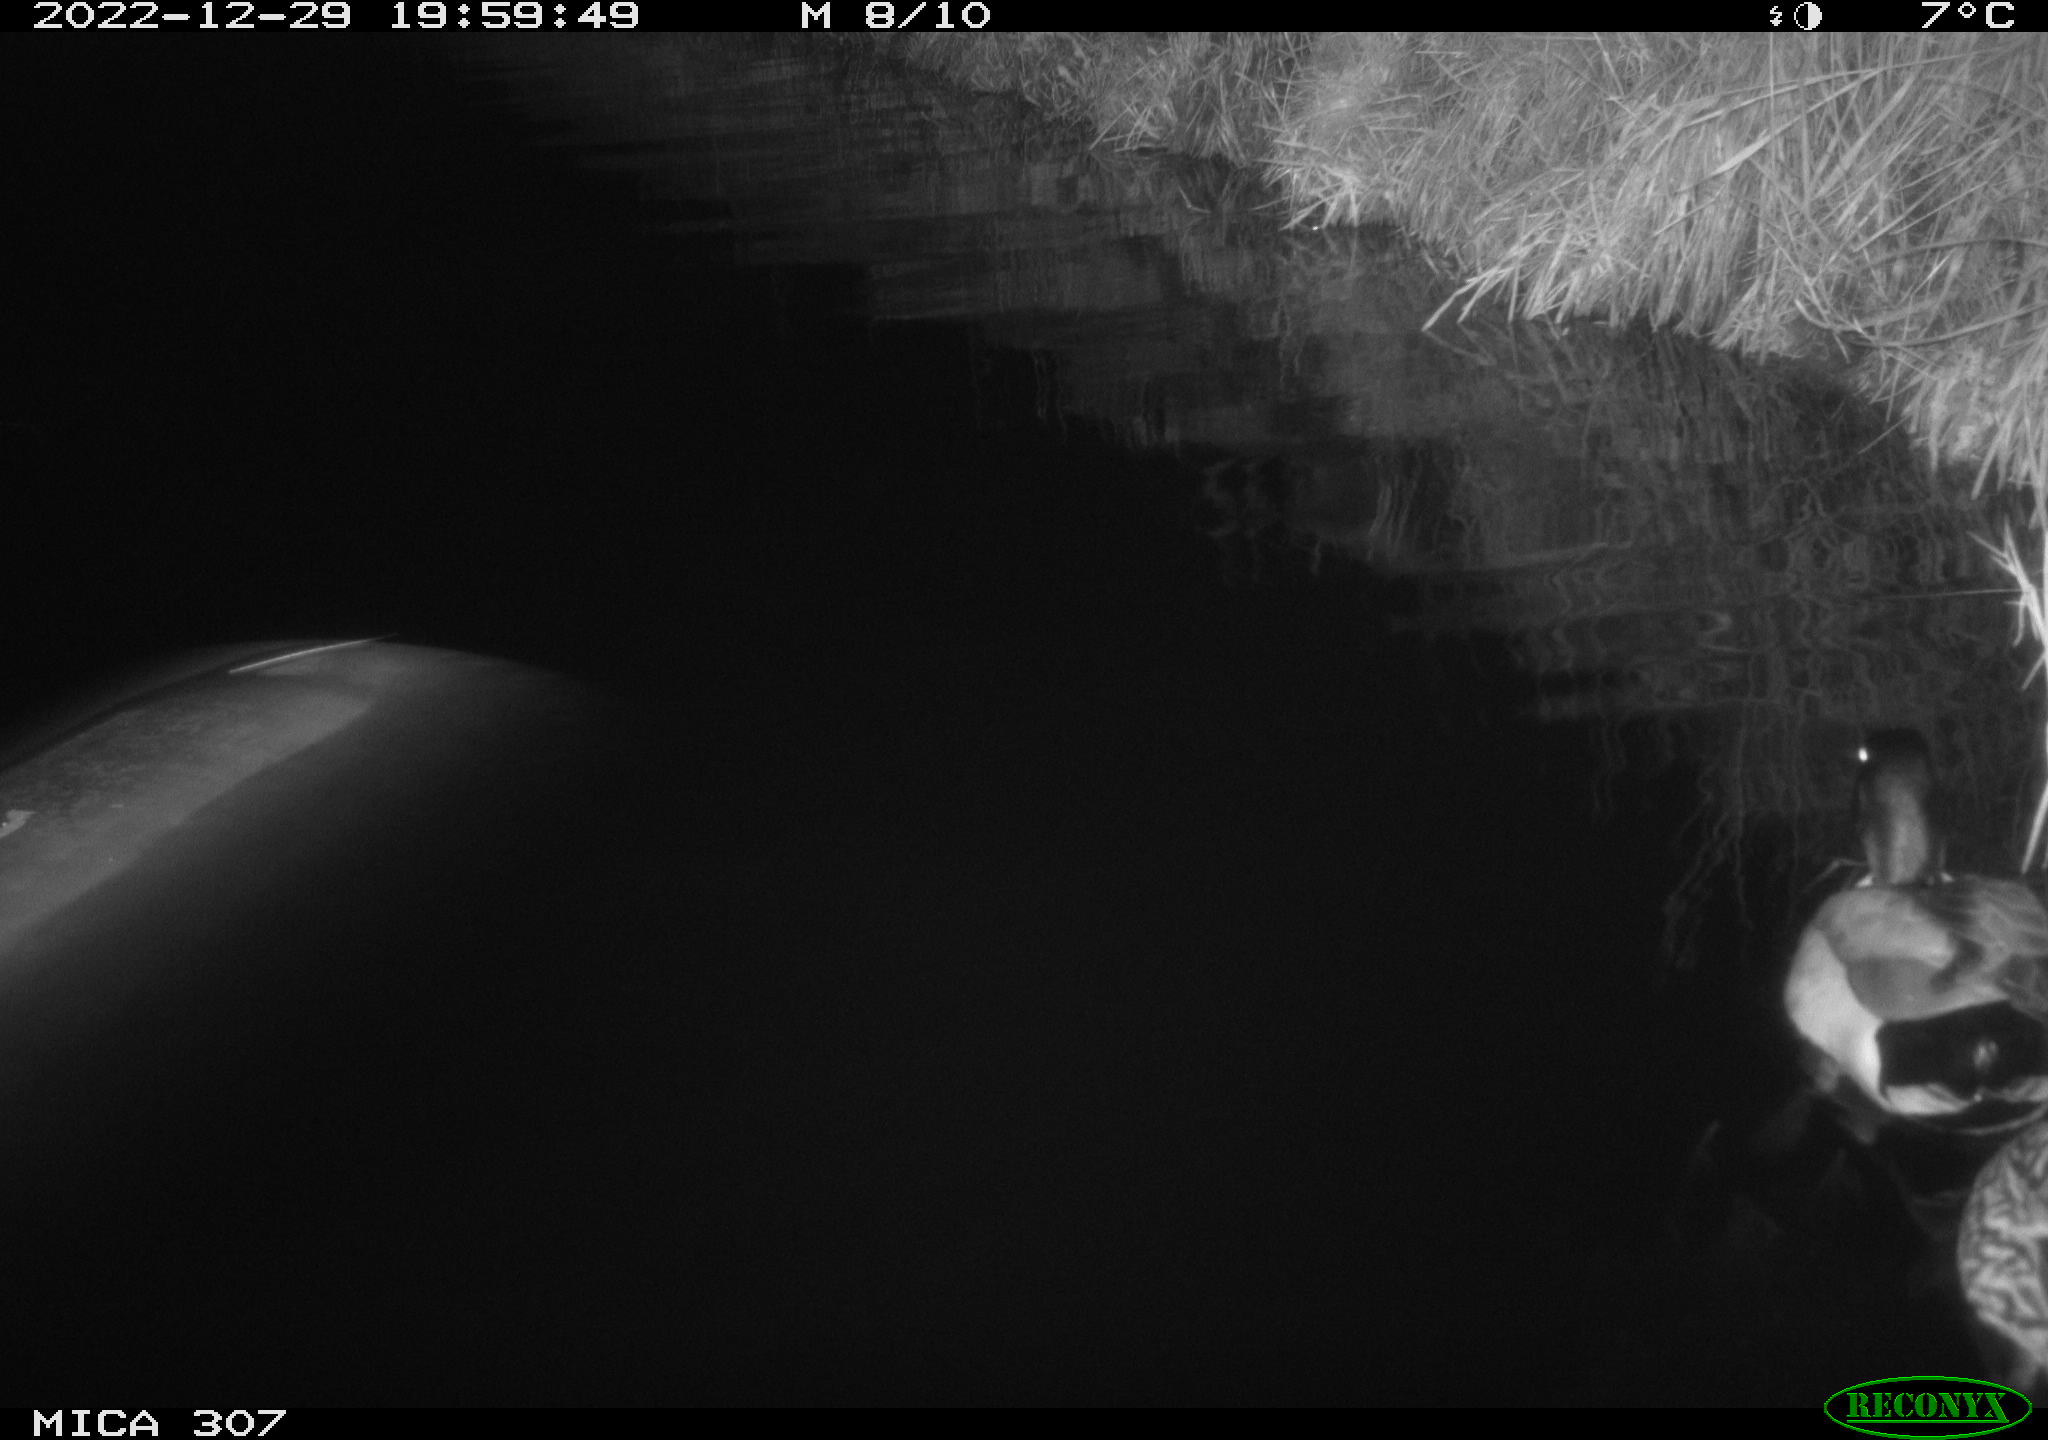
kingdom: Animalia
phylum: Chordata
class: Aves
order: Anseriformes
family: Anatidae
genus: Anas
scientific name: Anas
